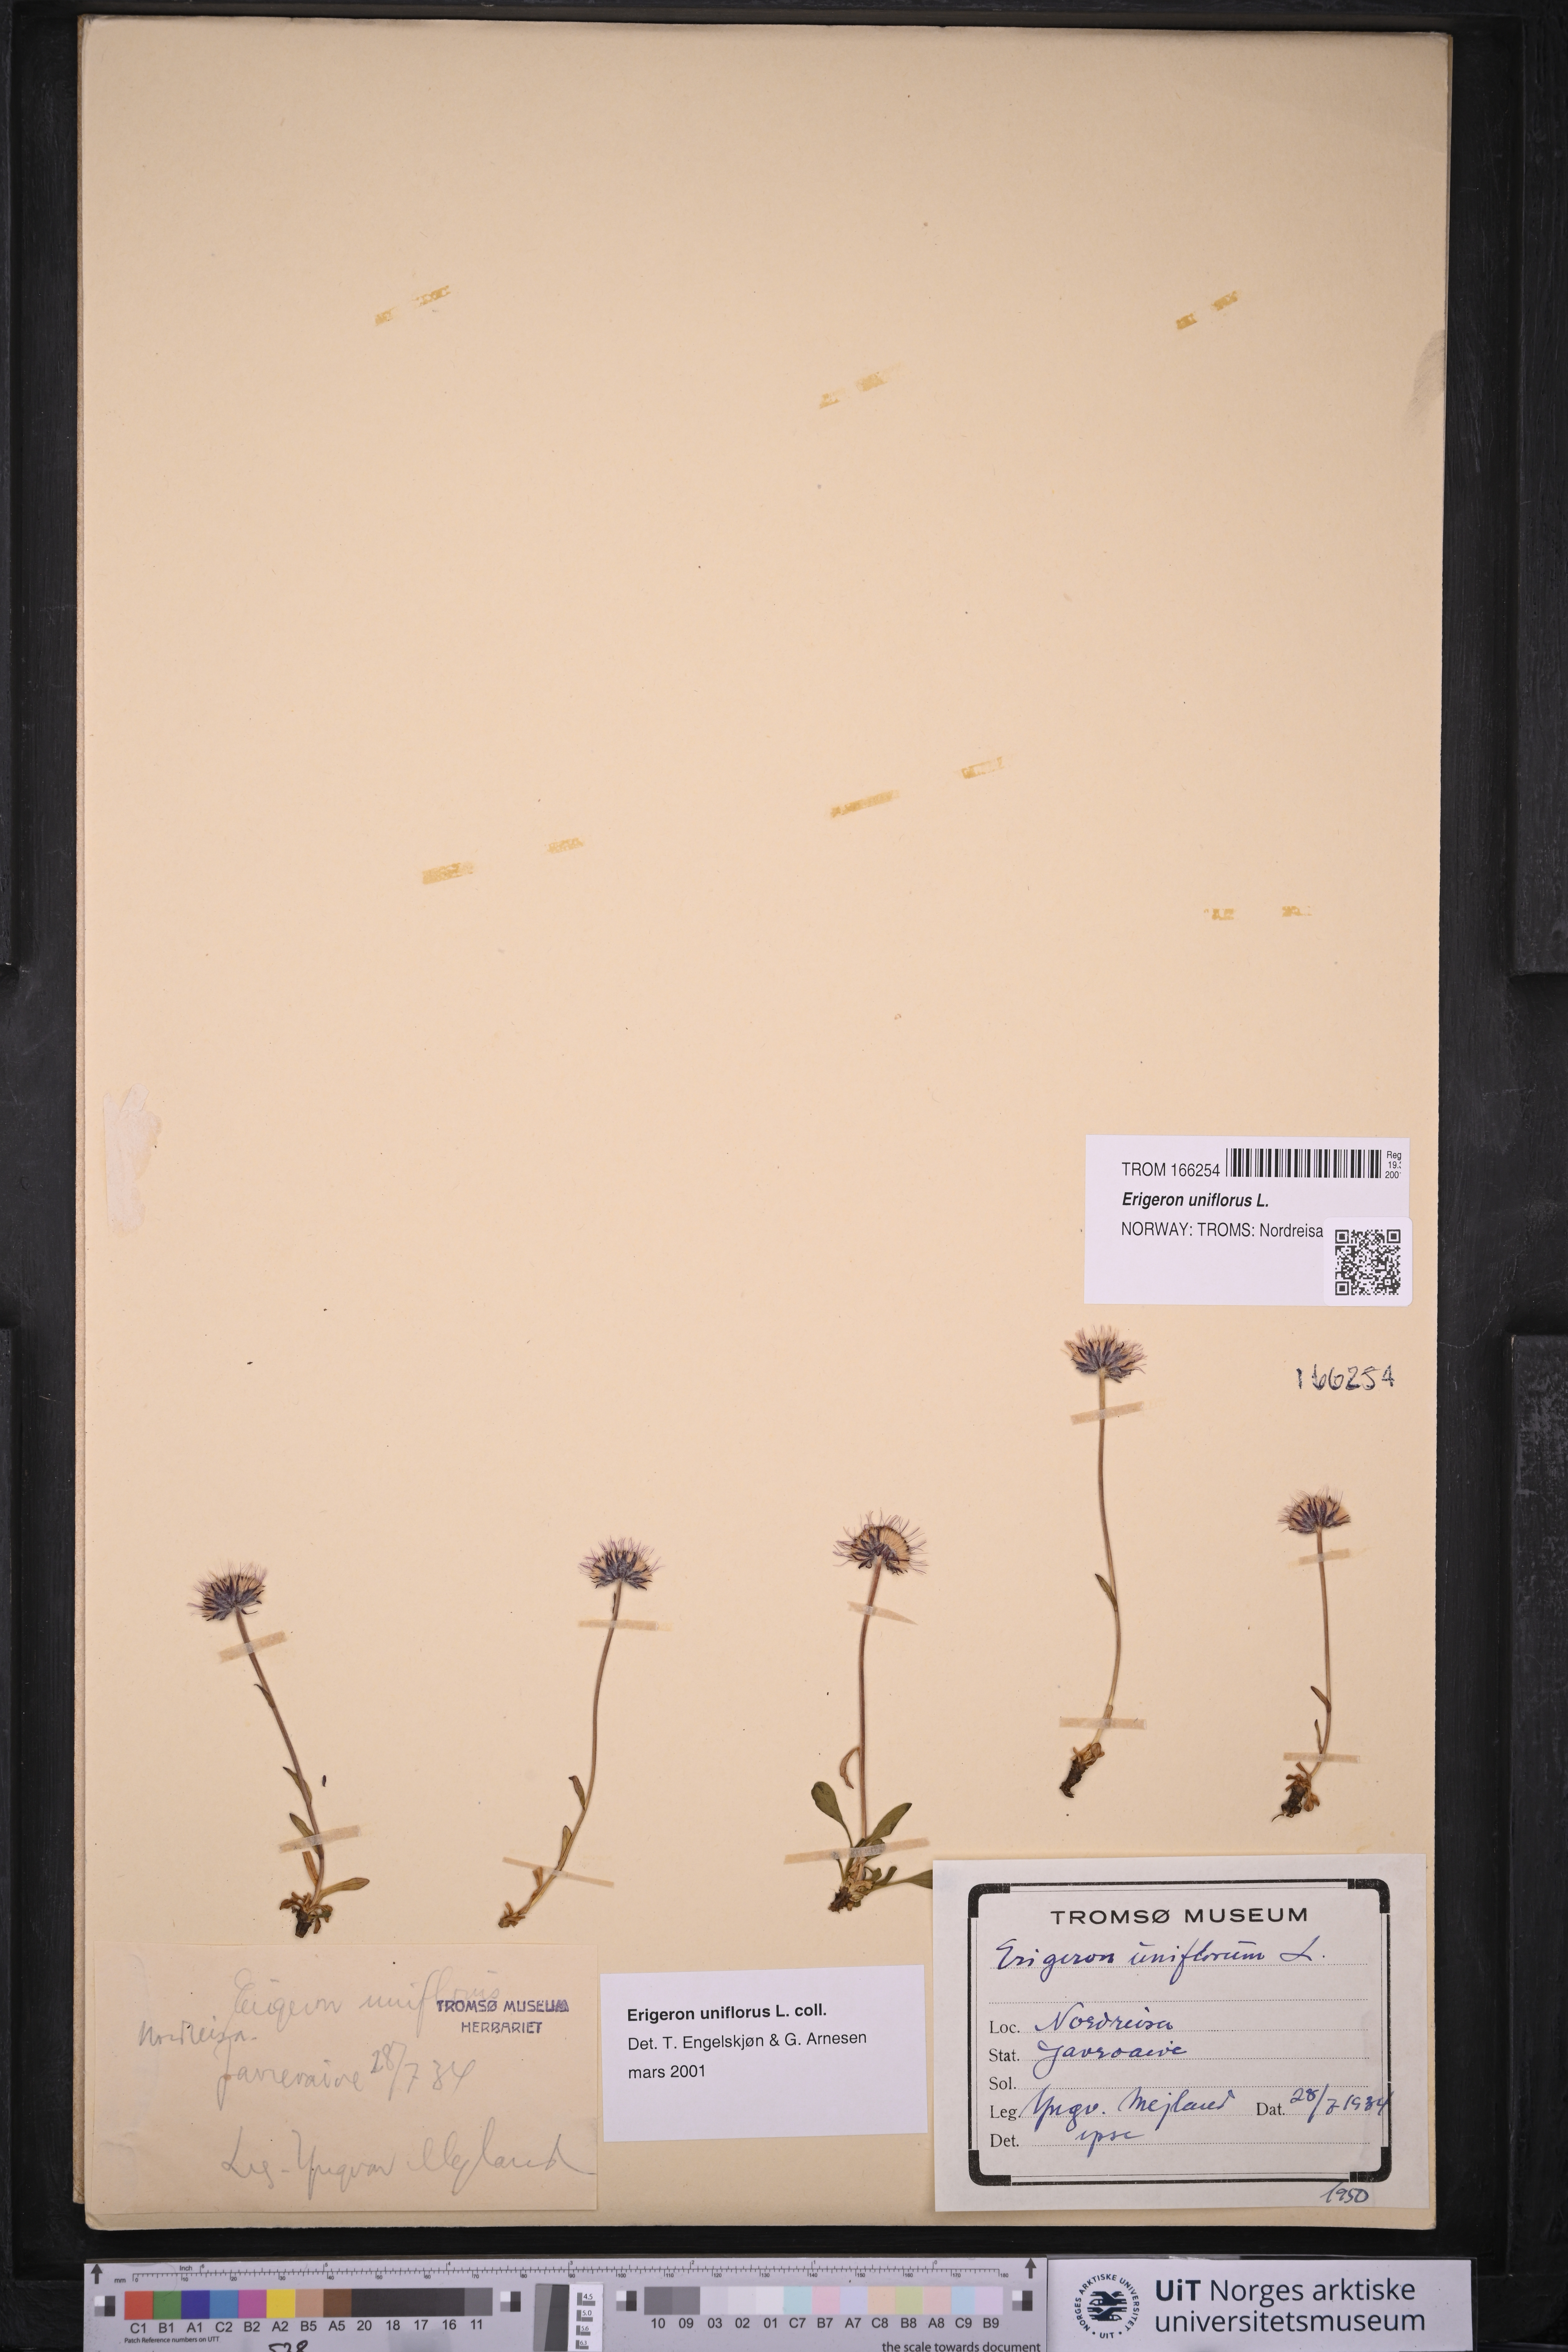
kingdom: Plantae
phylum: Tracheophyta
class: Magnoliopsida
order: Asterales
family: Asteraceae
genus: Erigeron
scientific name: Erigeron uniflorus
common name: Northern daisy
